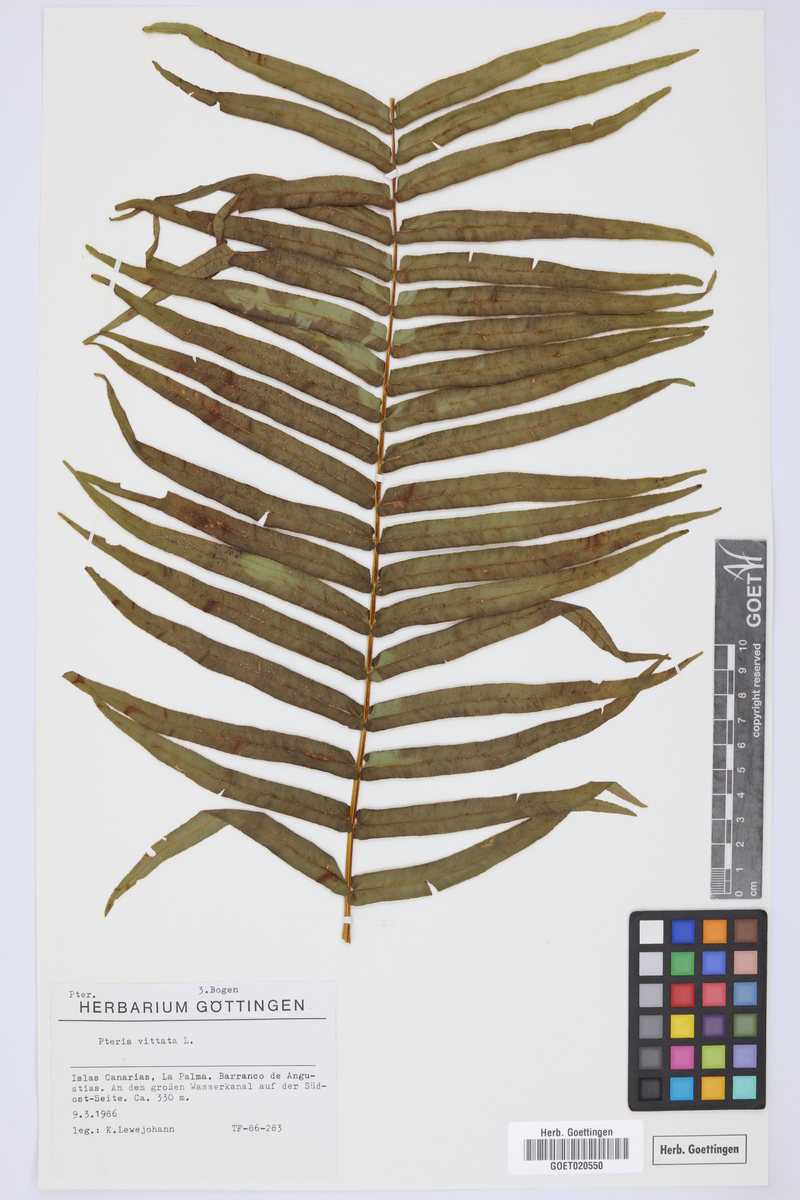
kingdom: Plantae
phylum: Tracheophyta
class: Polypodiopsida
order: Polypodiales
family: Pteridaceae
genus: Pteris
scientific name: Pteris vittata
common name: Ladder brake
